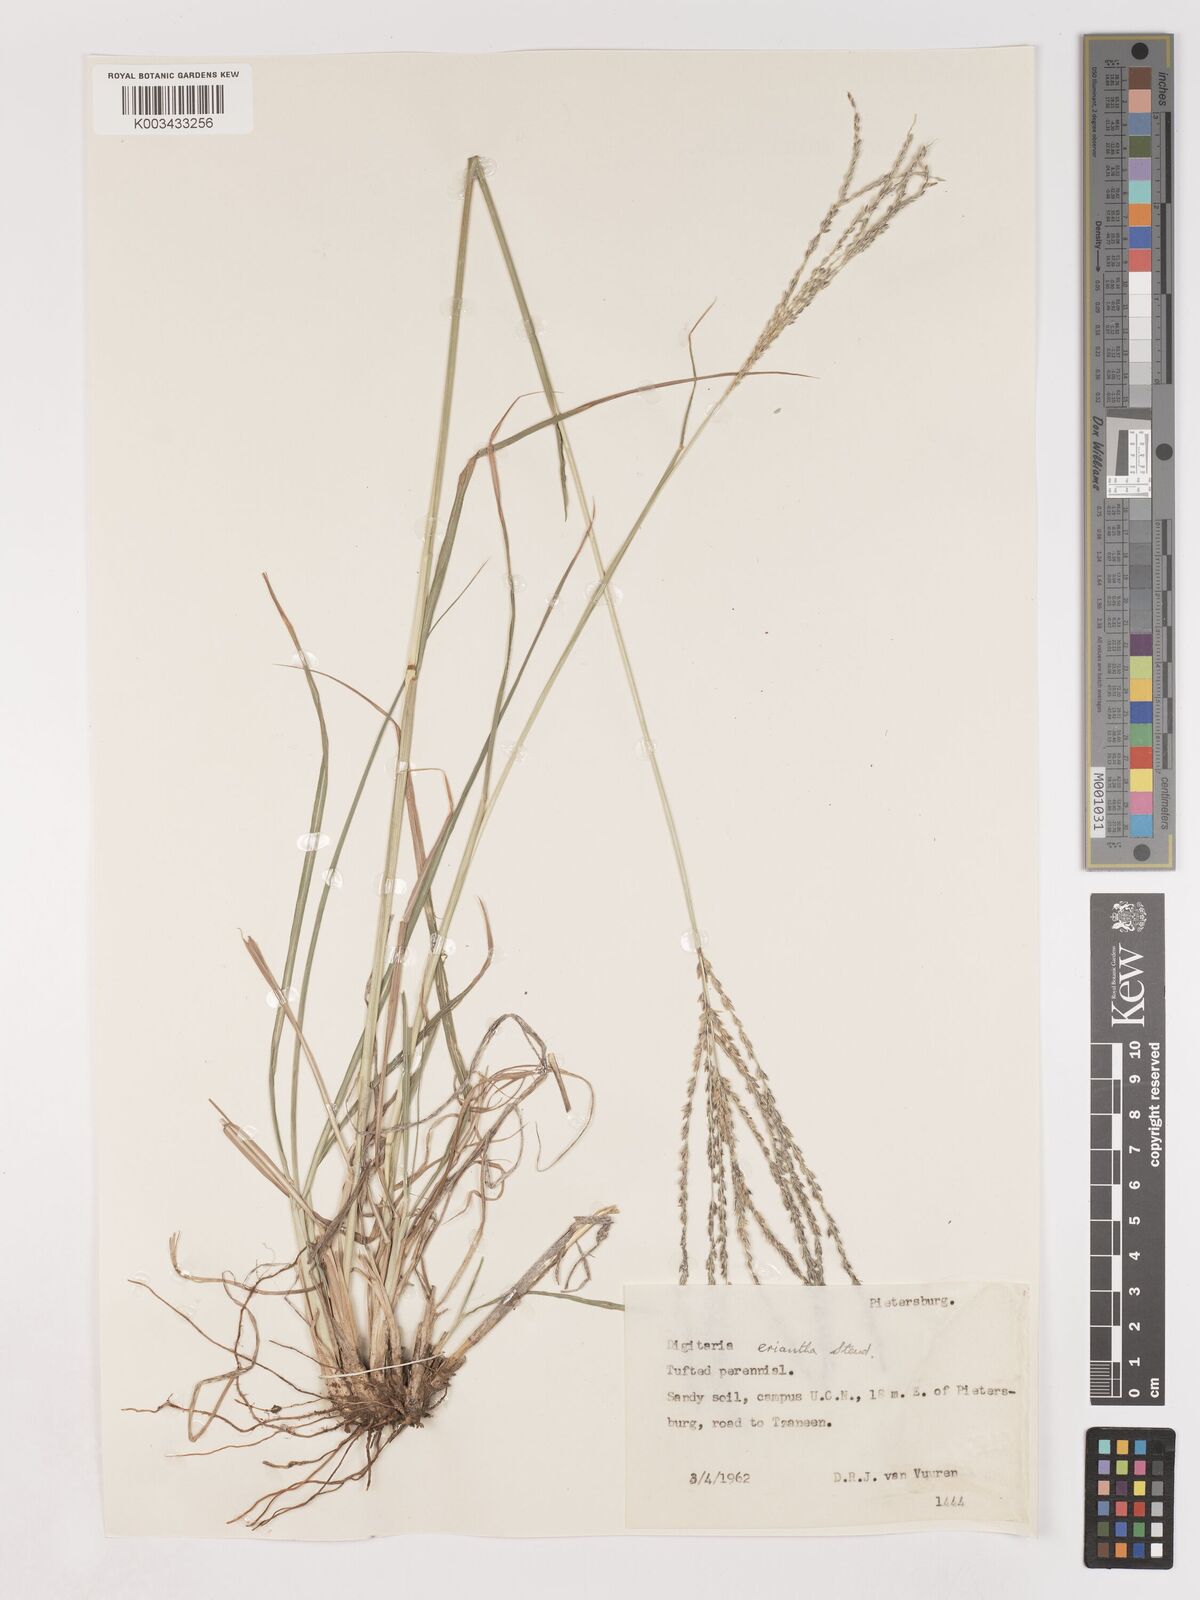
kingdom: Plantae
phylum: Tracheophyta
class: Liliopsida
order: Poales
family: Poaceae
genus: Digitaria
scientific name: Digitaria eriantha
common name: Digitgrass
